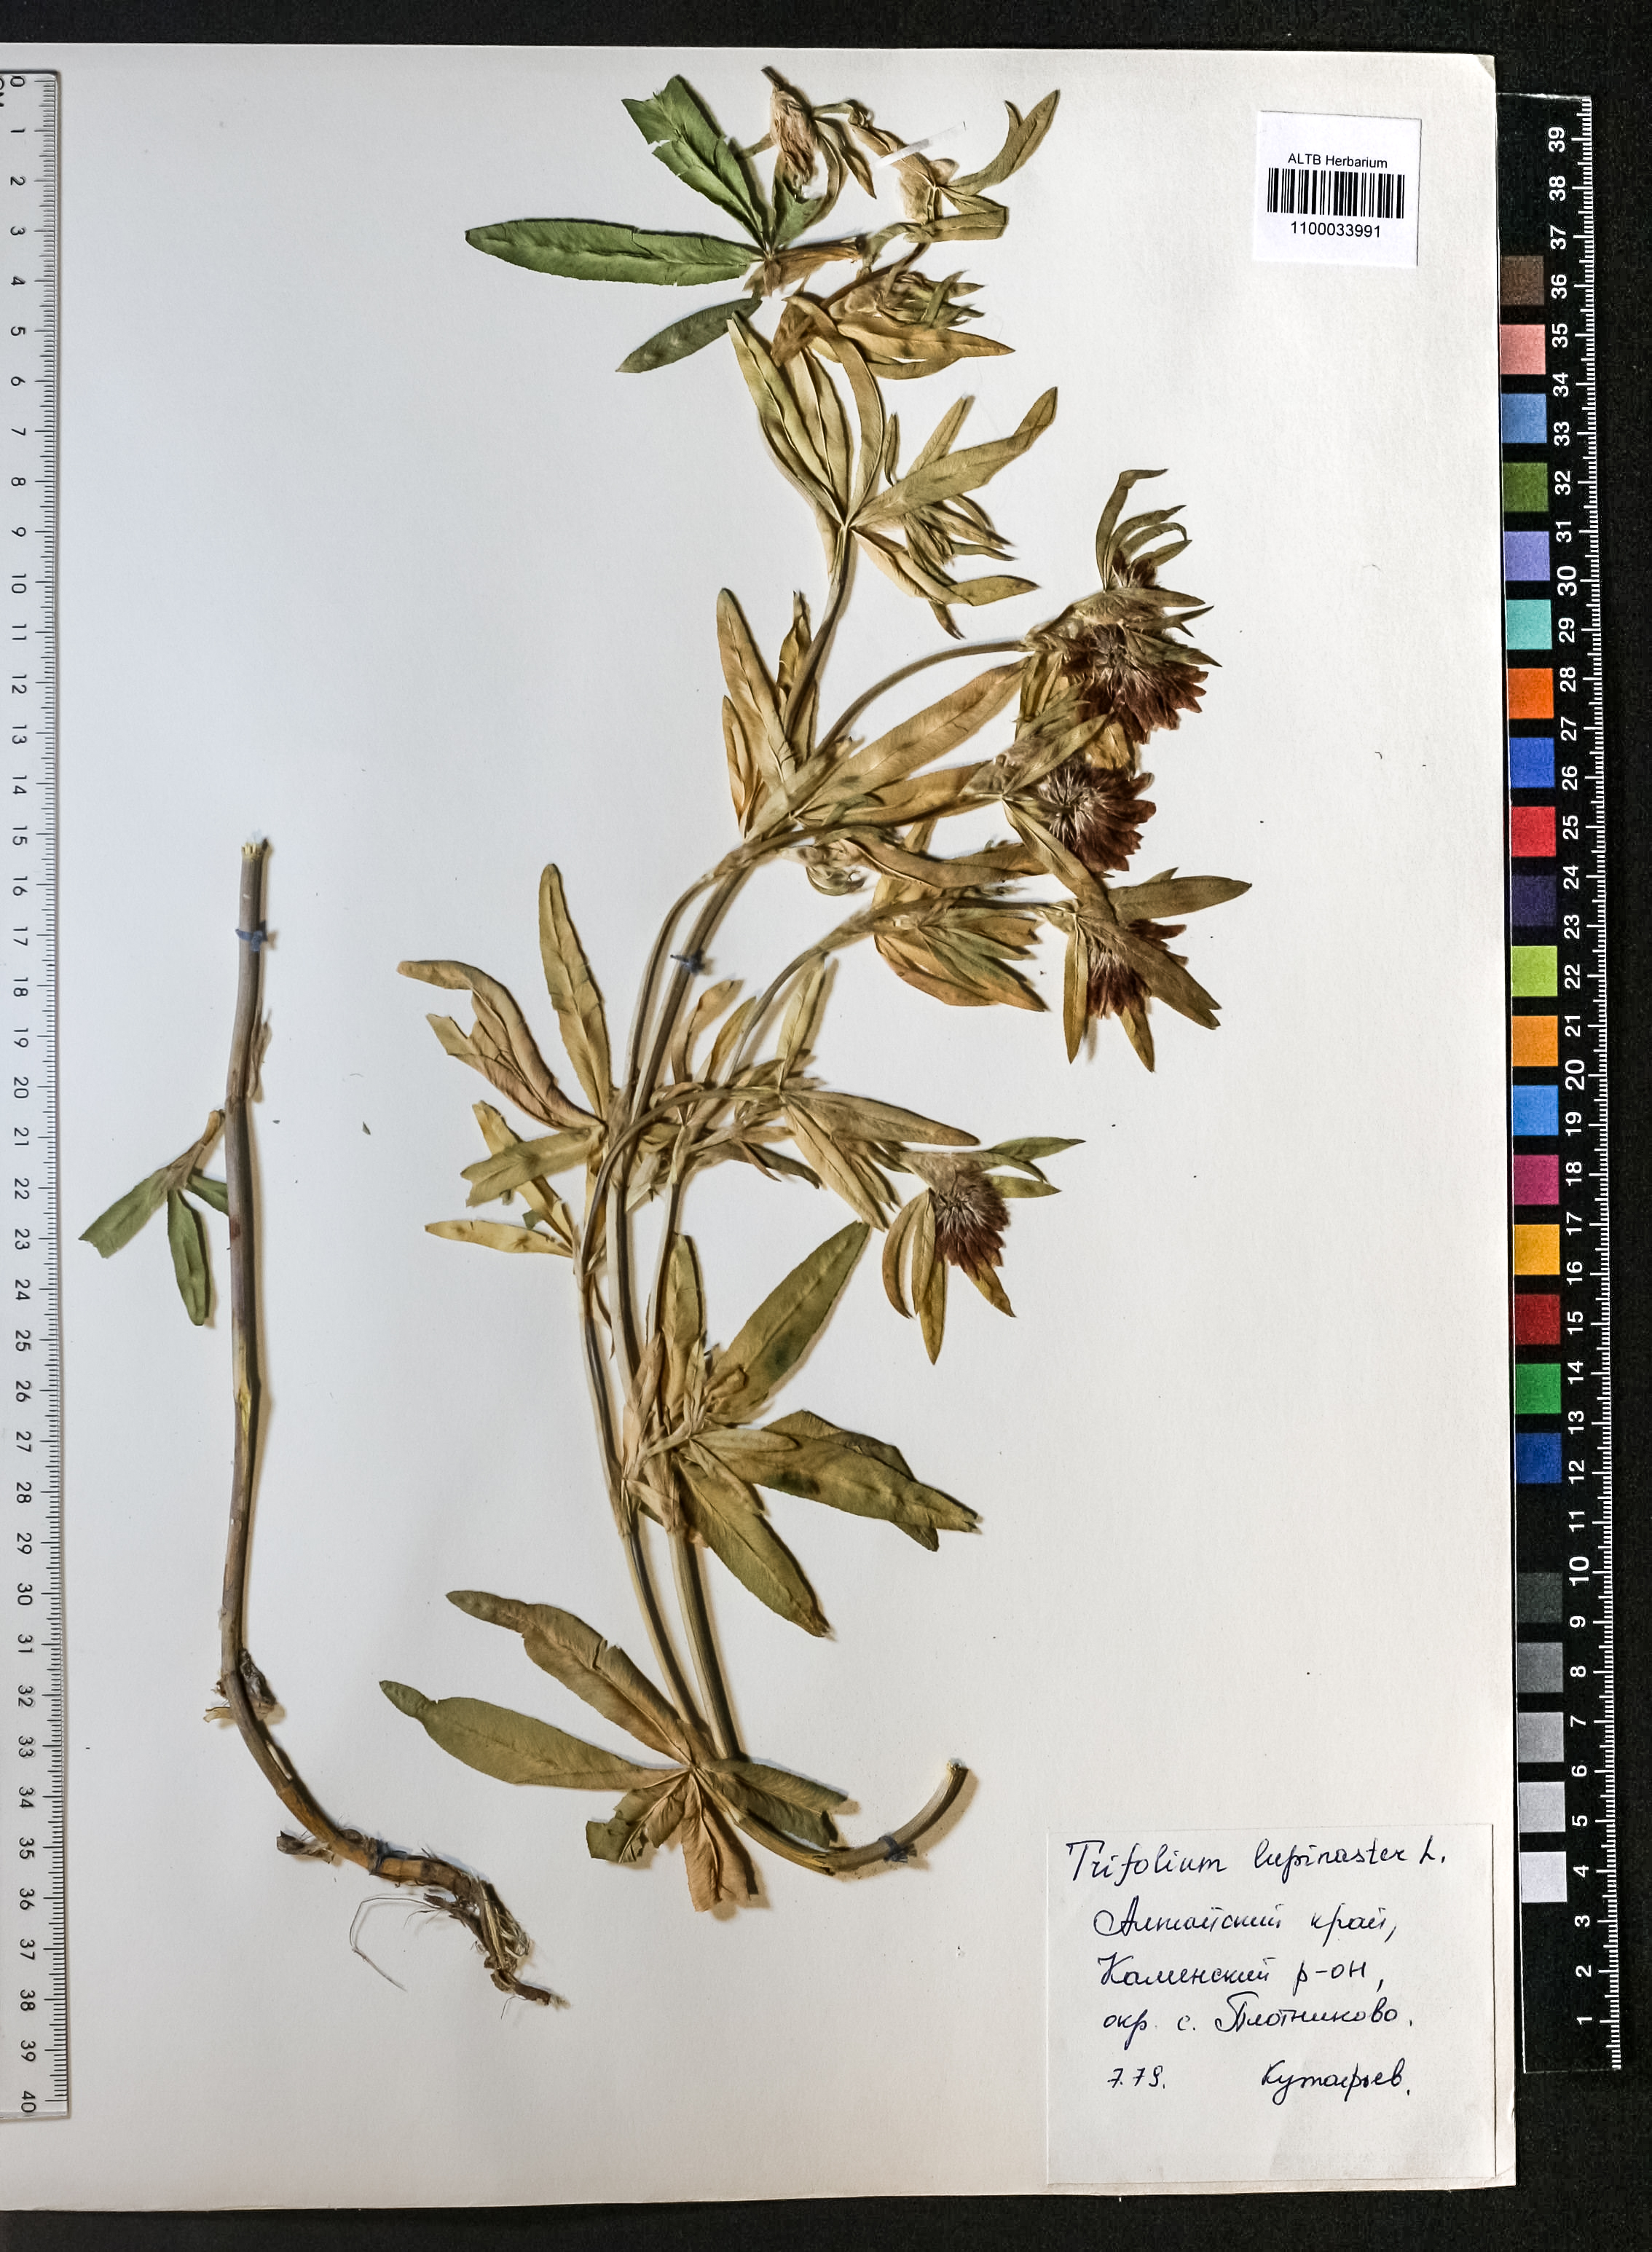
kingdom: Plantae
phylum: Tracheophyta
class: Magnoliopsida
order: Fabales
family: Fabaceae
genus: Trifolium
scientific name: Trifolium lupinaster
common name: Lupine clover
